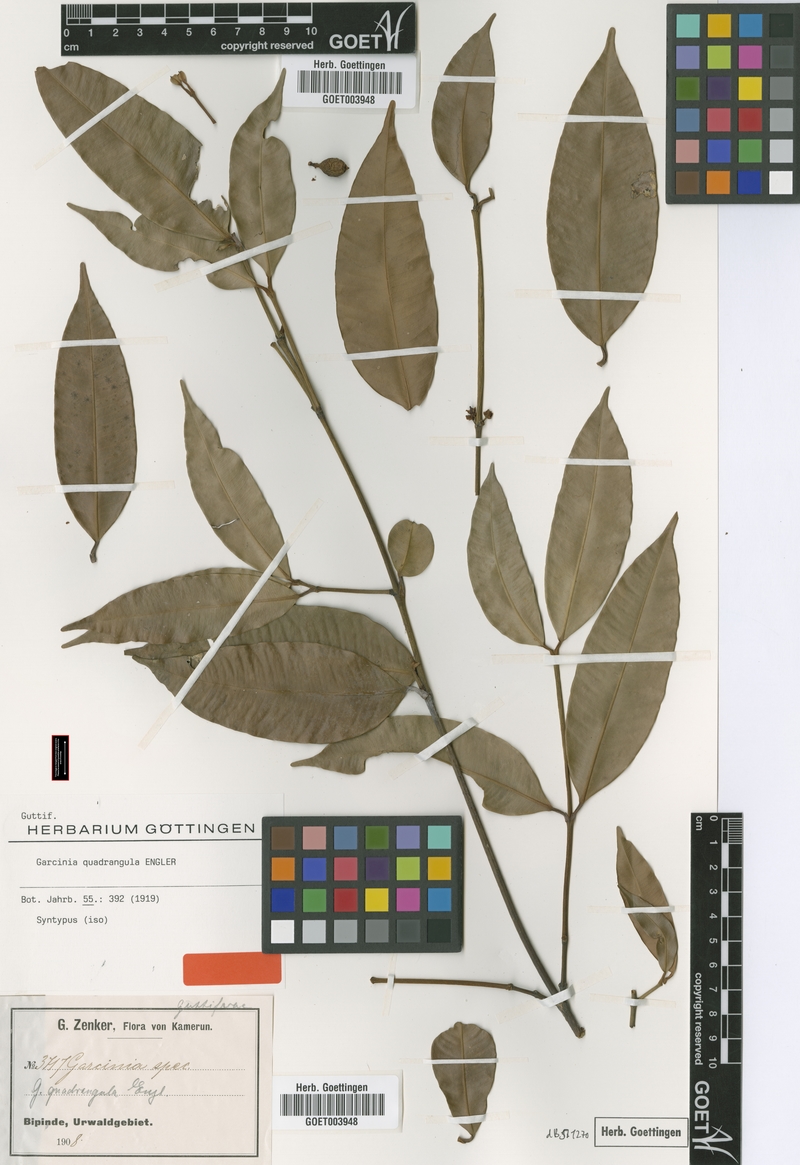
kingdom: Plantae
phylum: Tracheophyta
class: Magnoliopsida
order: Malpighiales
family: Clusiaceae
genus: Garcinia
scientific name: Garcinia ovalifolia
